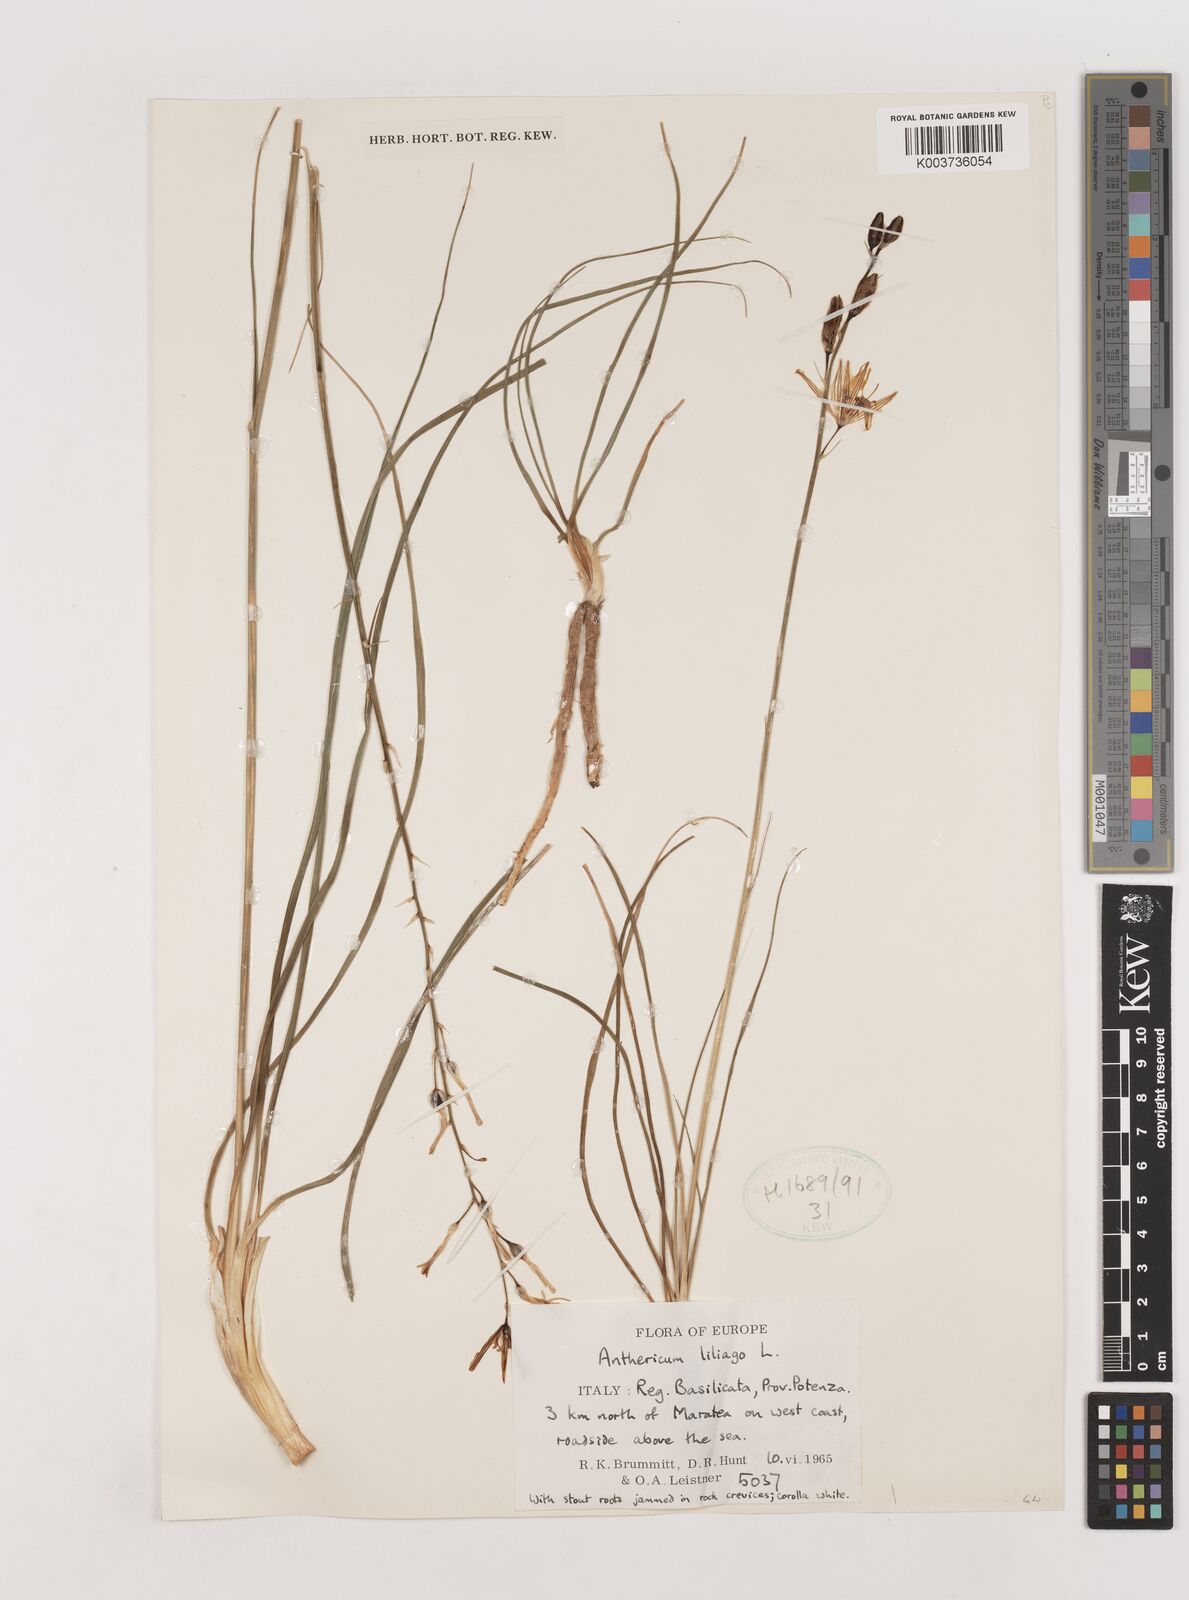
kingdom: Plantae
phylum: Tracheophyta
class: Liliopsida
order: Asparagales
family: Asparagaceae
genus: Anthericum
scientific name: Anthericum liliago
